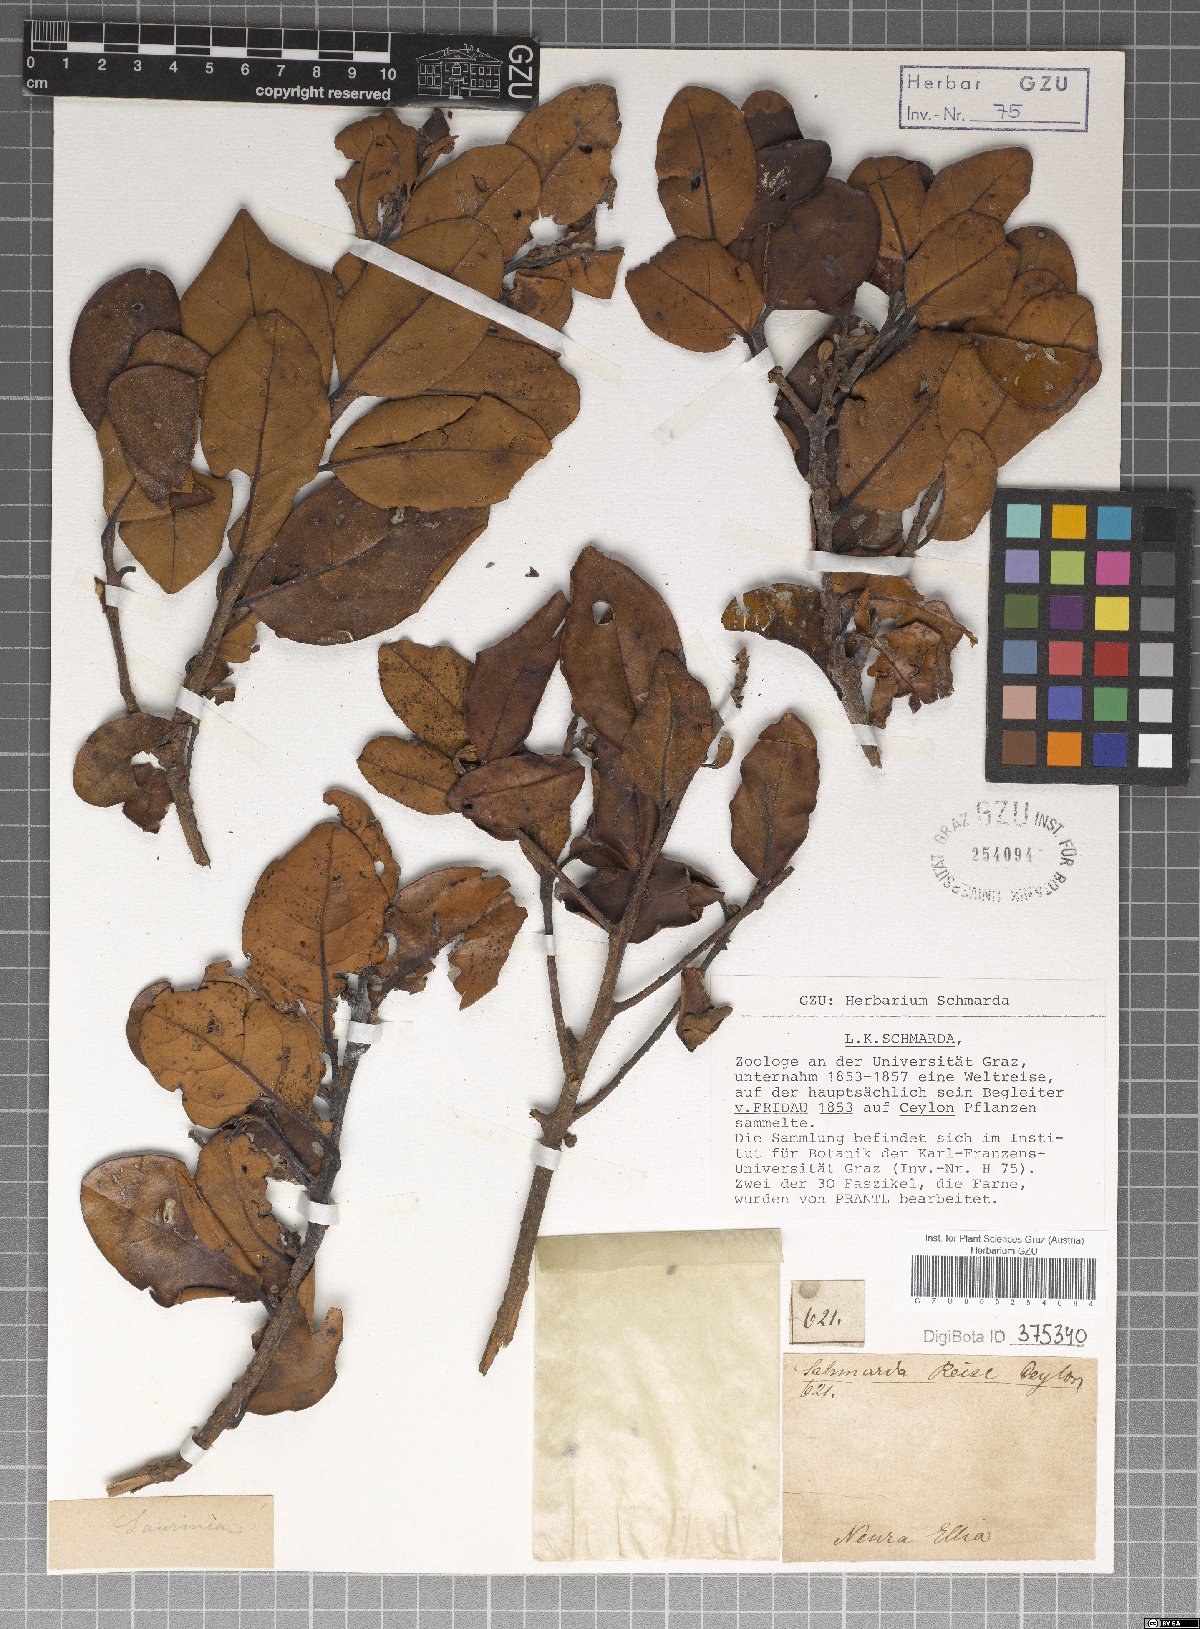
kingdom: Plantae
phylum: Tracheophyta
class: Magnoliopsida
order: Laurales
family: Lauraceae
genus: Litsea
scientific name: Litsea
